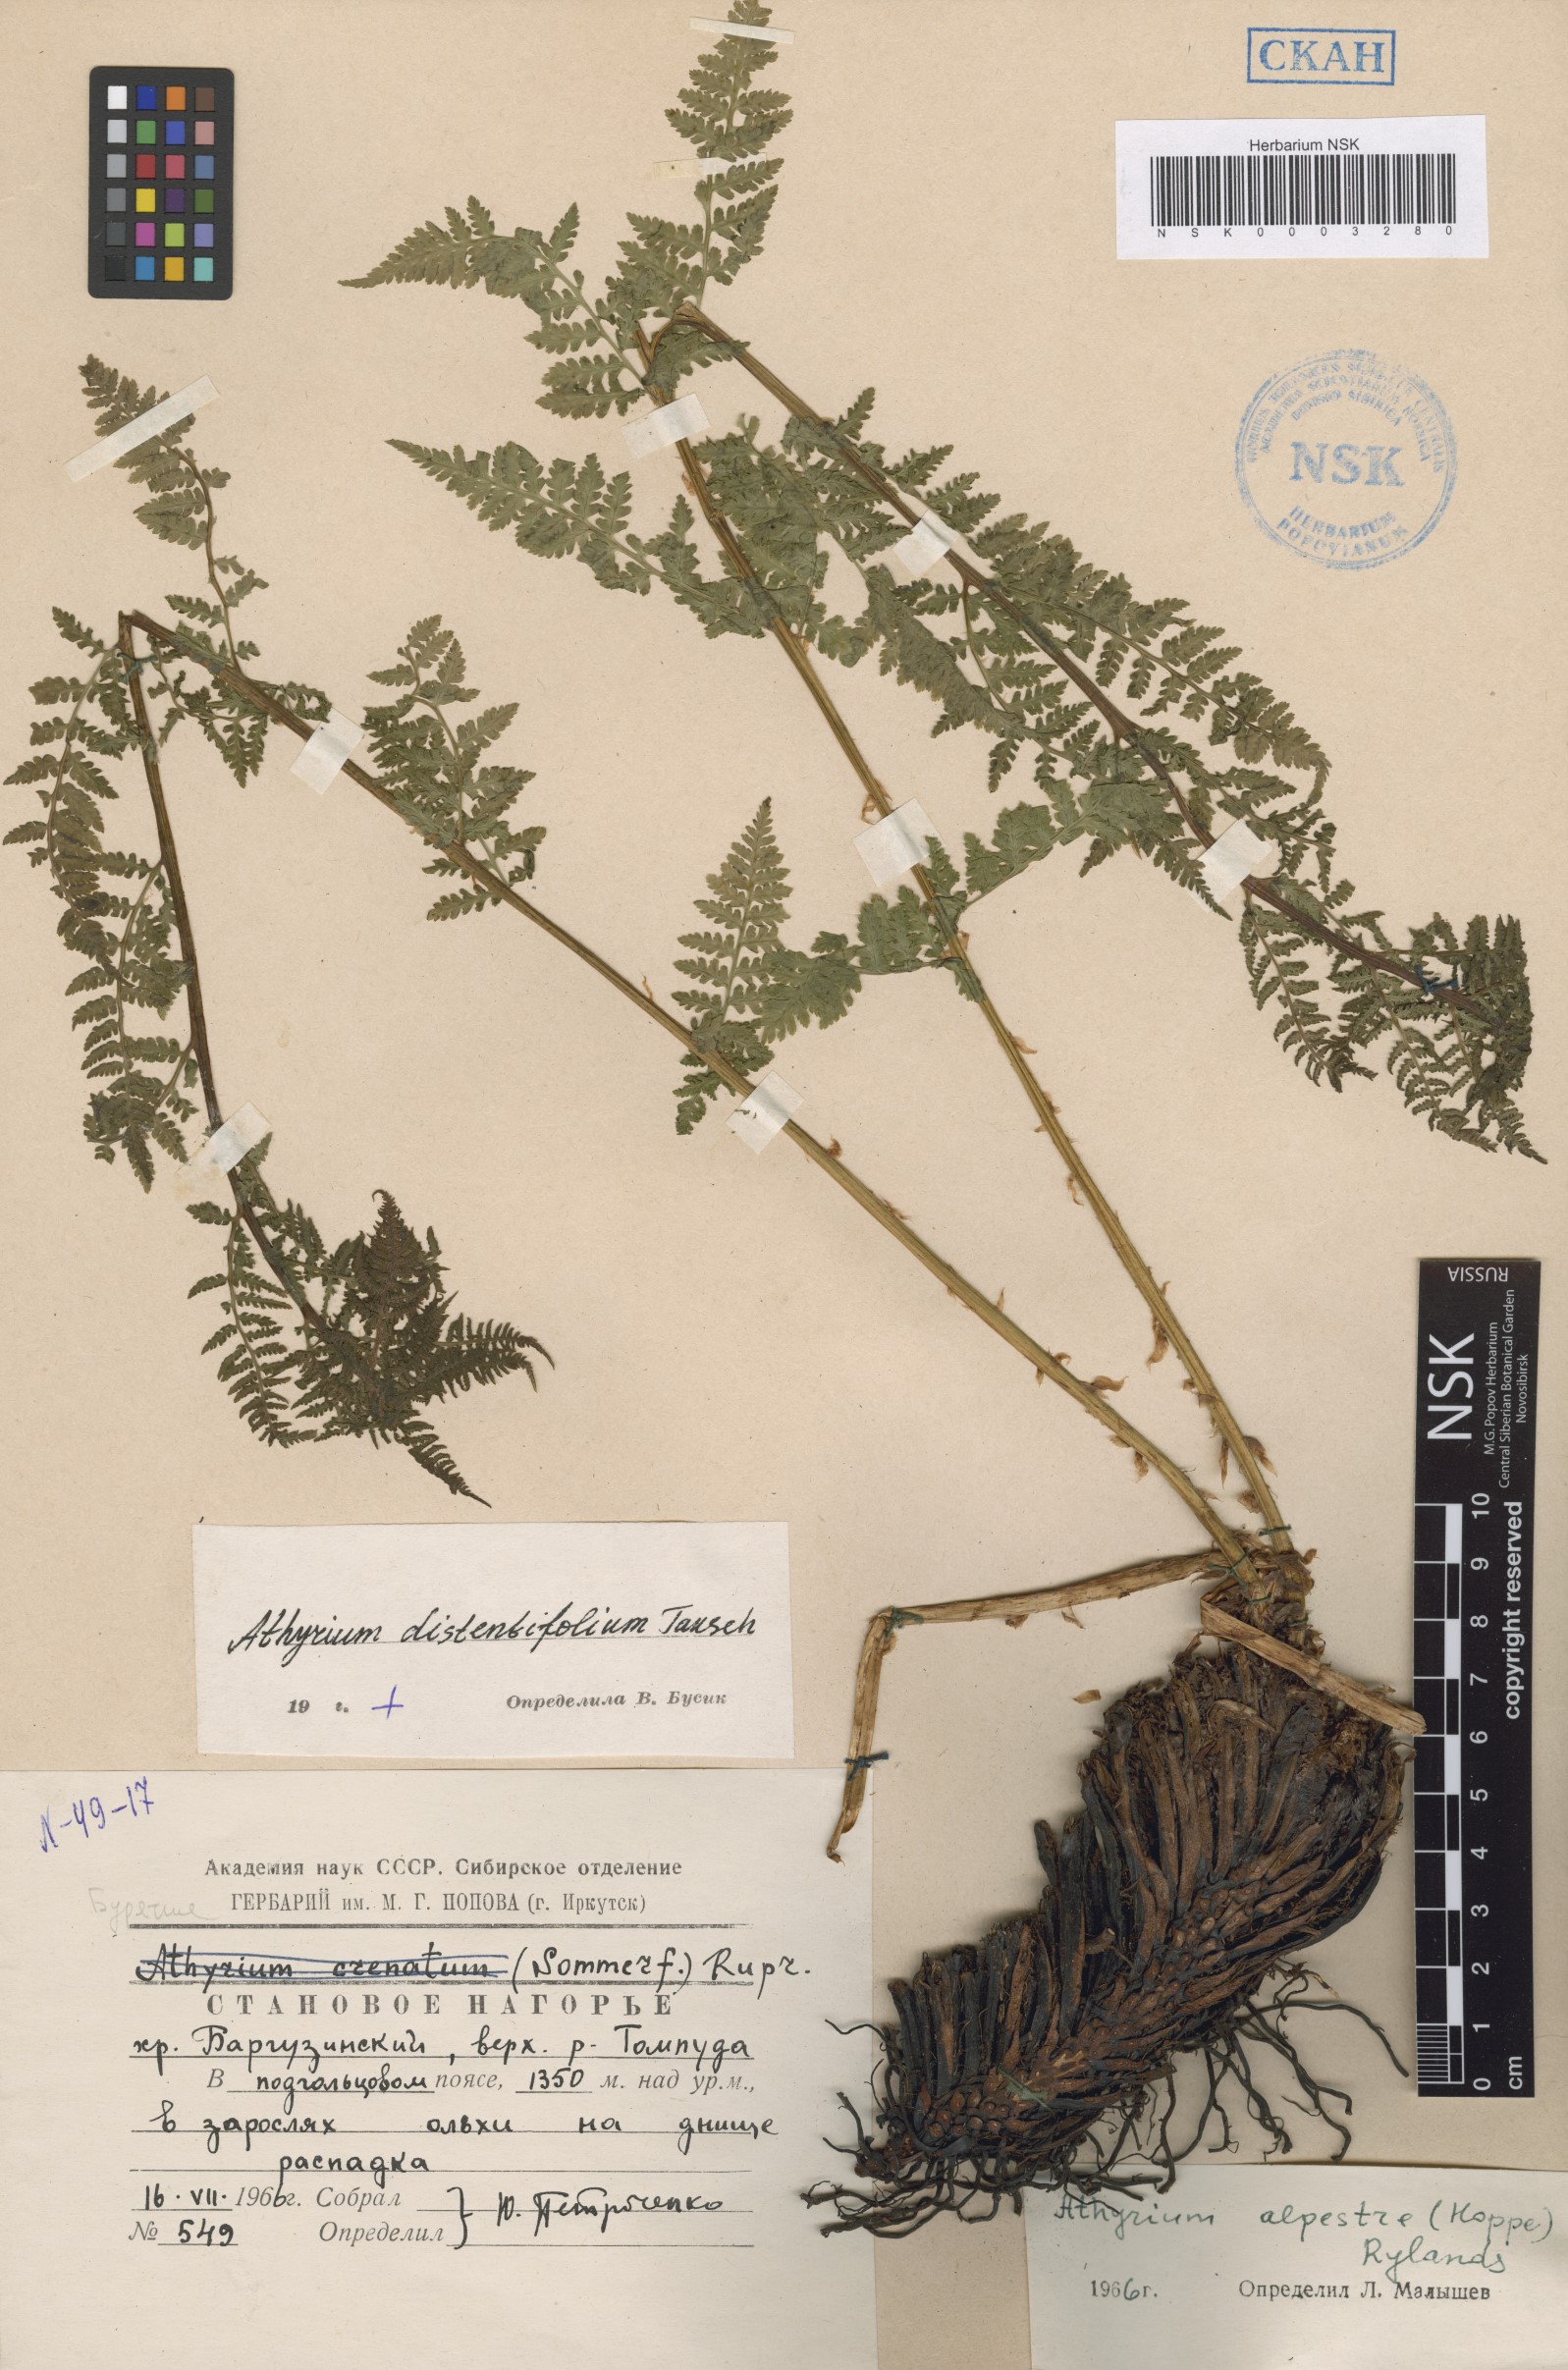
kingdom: Plantae
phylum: Tracheophyta
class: Polypodiopsida
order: Polypodiales
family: Athyriaceae
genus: Pseudathyrium
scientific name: Pseudathyrium alpestre
